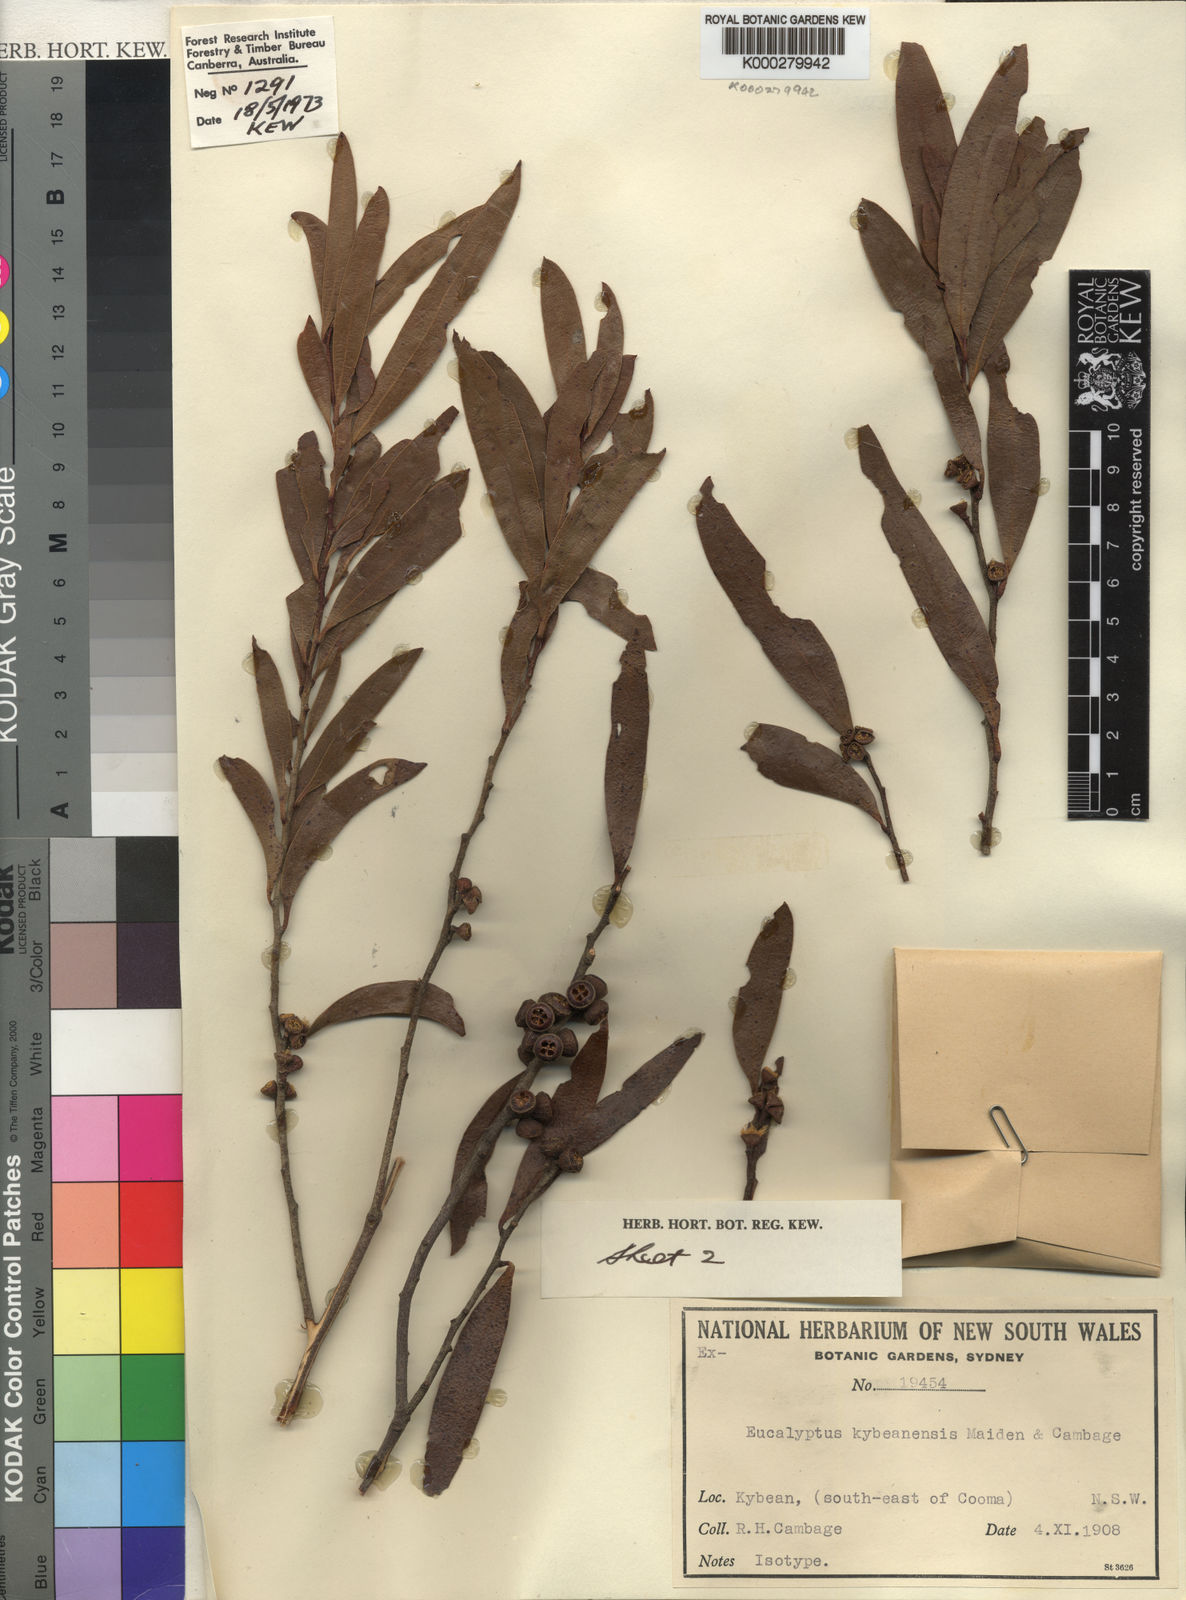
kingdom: Plantae
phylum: Tracheophyta
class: Magnoliopsida
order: Myrtales
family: Myrtaceae
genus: Eucalyptus
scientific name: Eucalyptus kybeanensis
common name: Kybean mallee-ash
